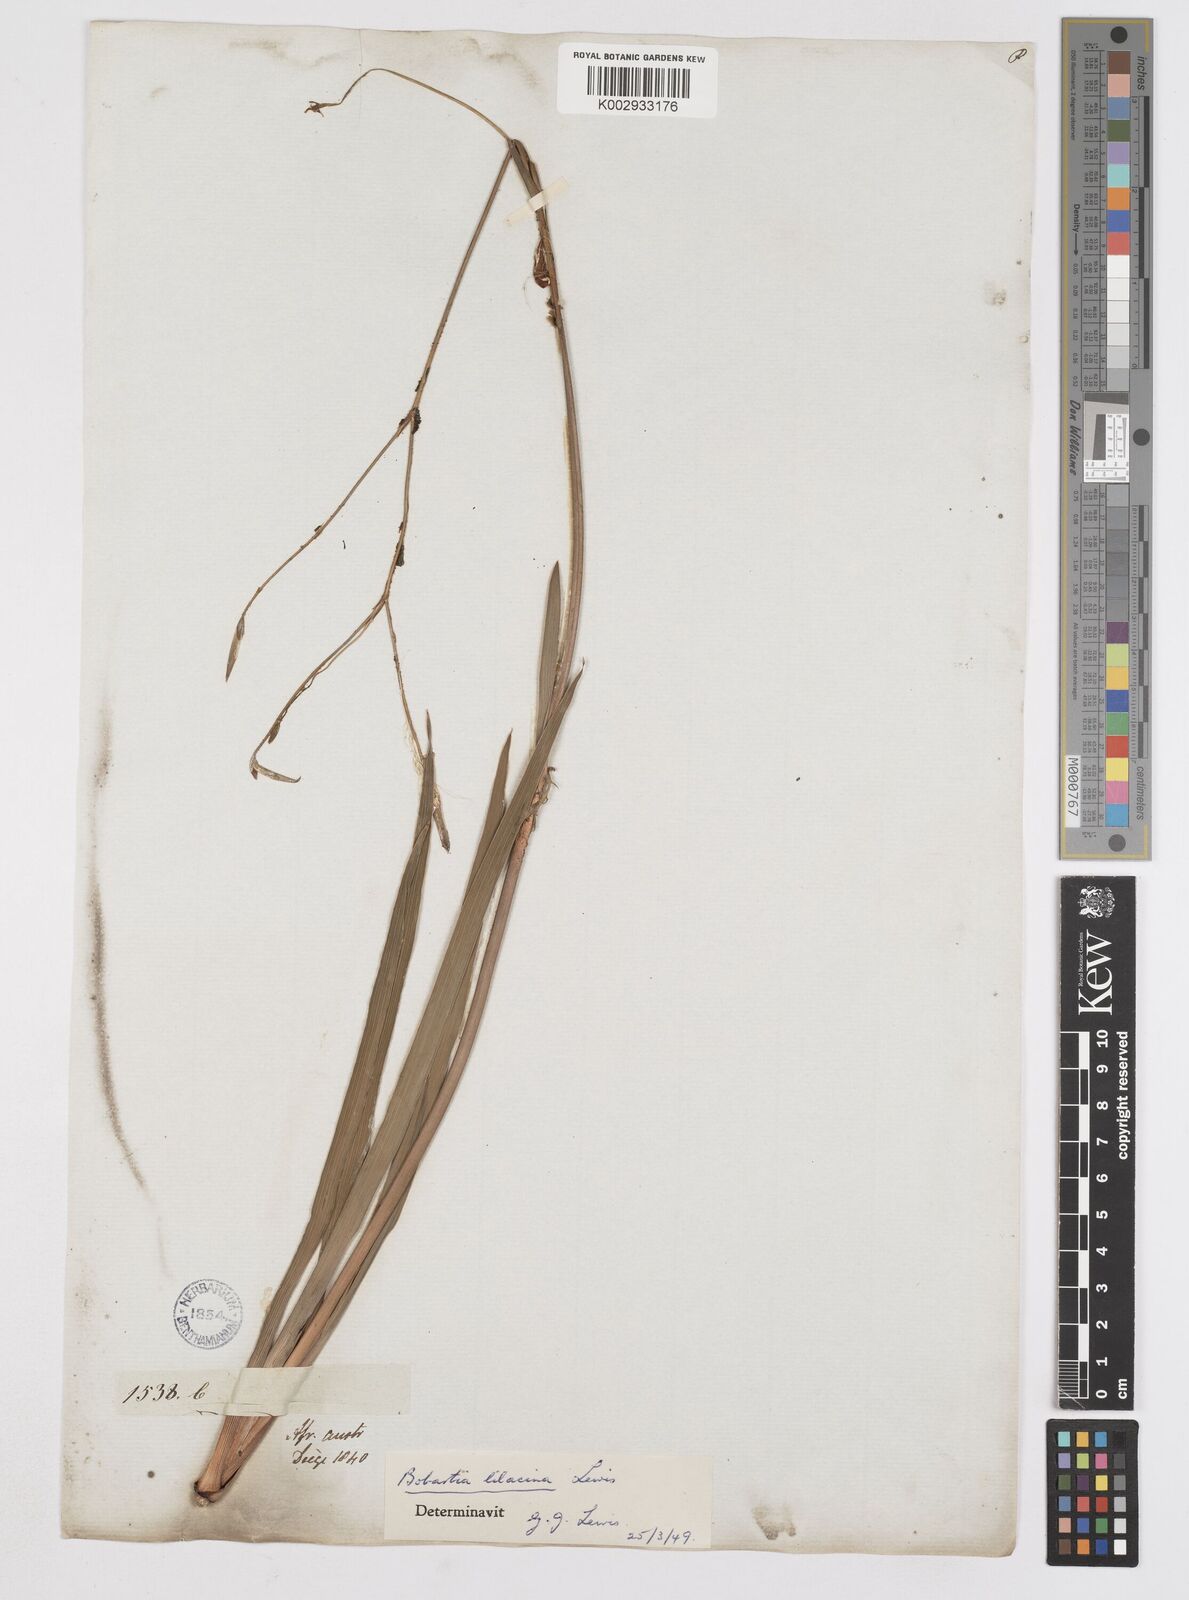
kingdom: Plantae
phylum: Tracheophyta
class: Liliopsida
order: Asparagales
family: Iridaceae
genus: Bobartia
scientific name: Bobartia lilacina
